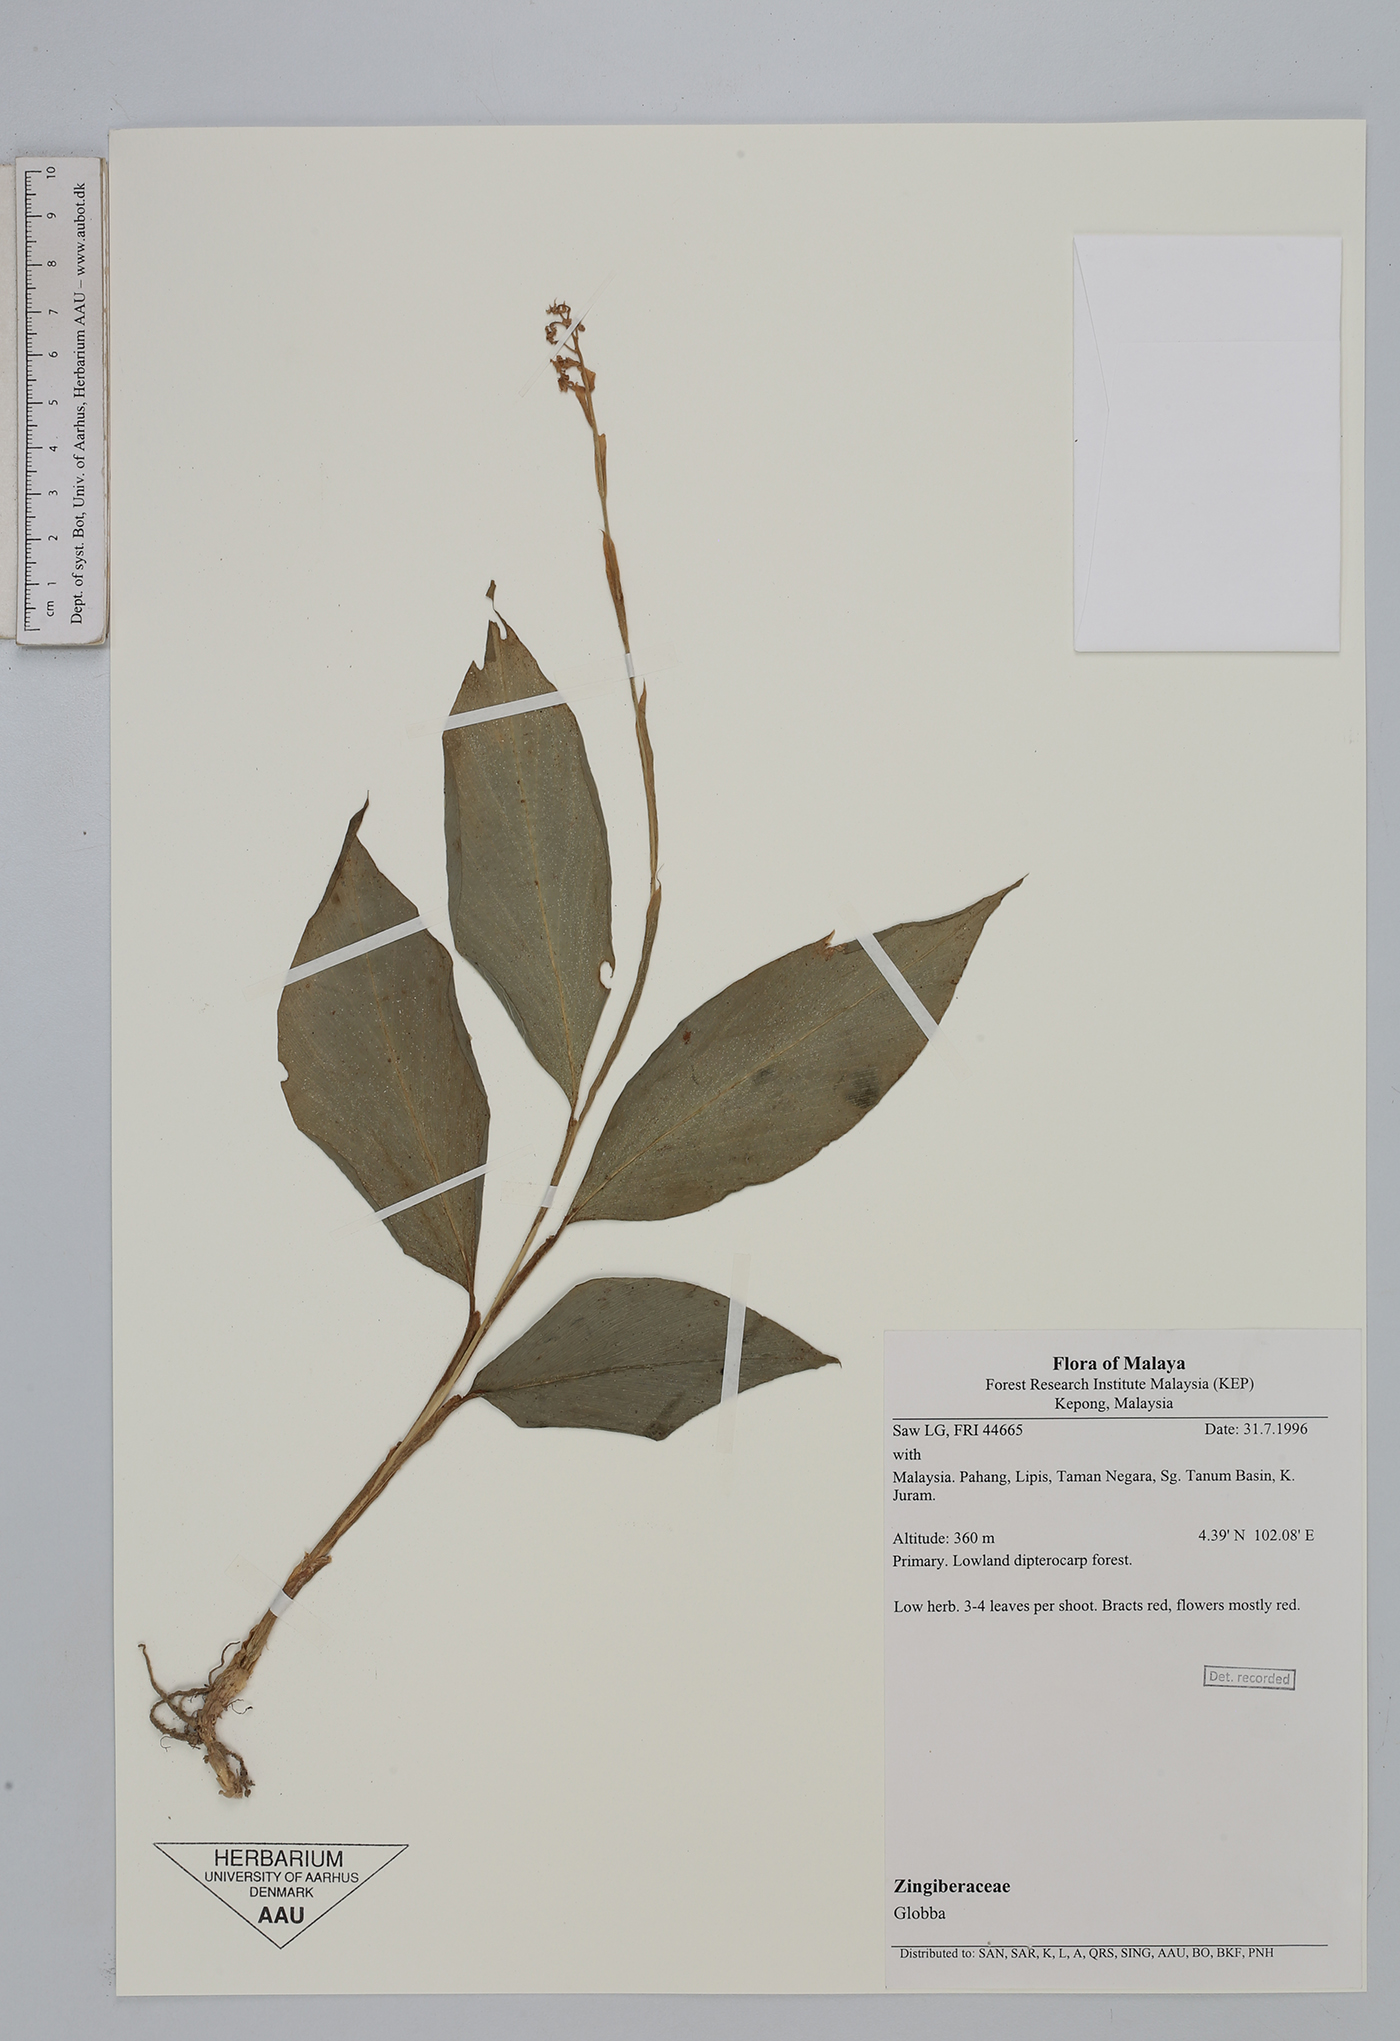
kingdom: Plantae
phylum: Tracheophyta
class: Liliopsida
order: Zingiberales
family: Zingiberaceae
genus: Globba
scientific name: Globba
